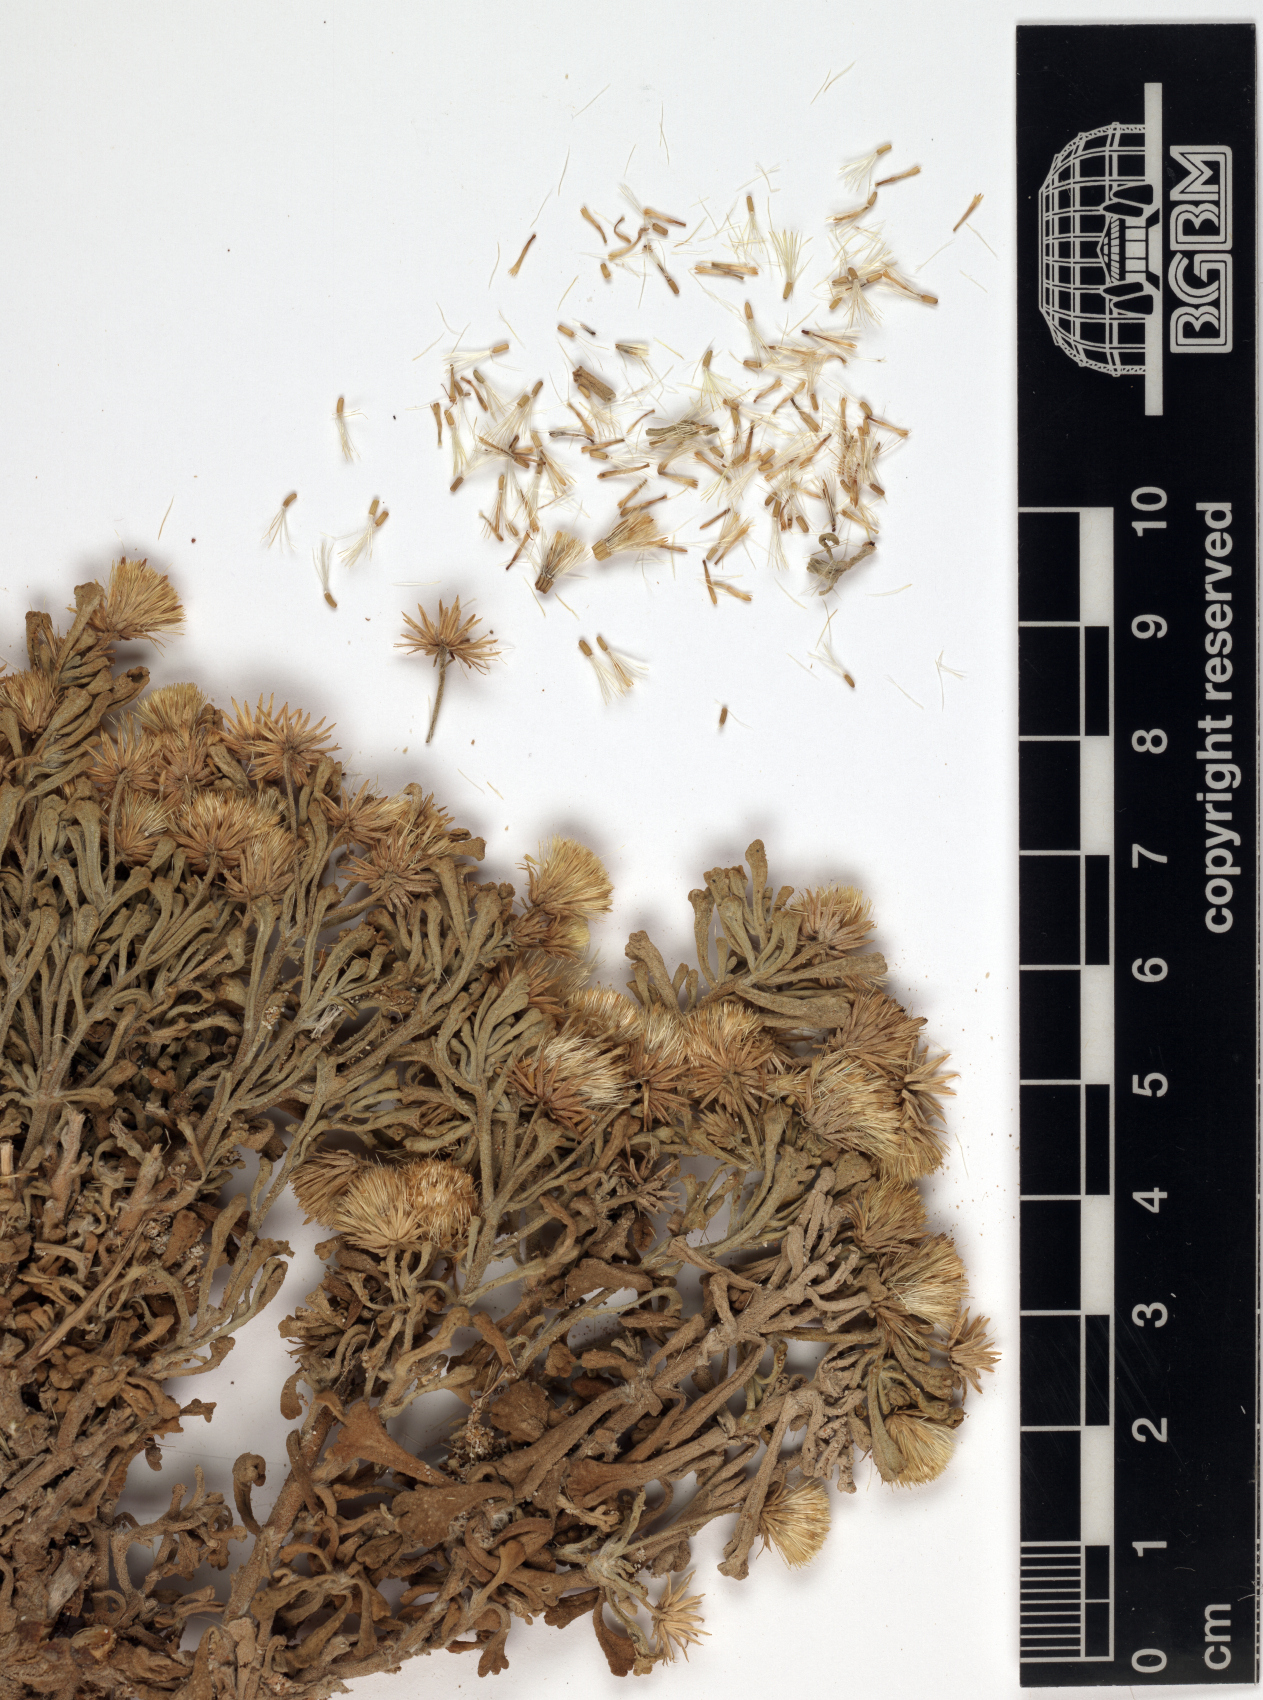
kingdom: Plantae
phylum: Tracheophyta
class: Magnoliopsida
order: Asterales
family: Asteraceae
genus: Pulicaria
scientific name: Pulicaria stephanocarpa
